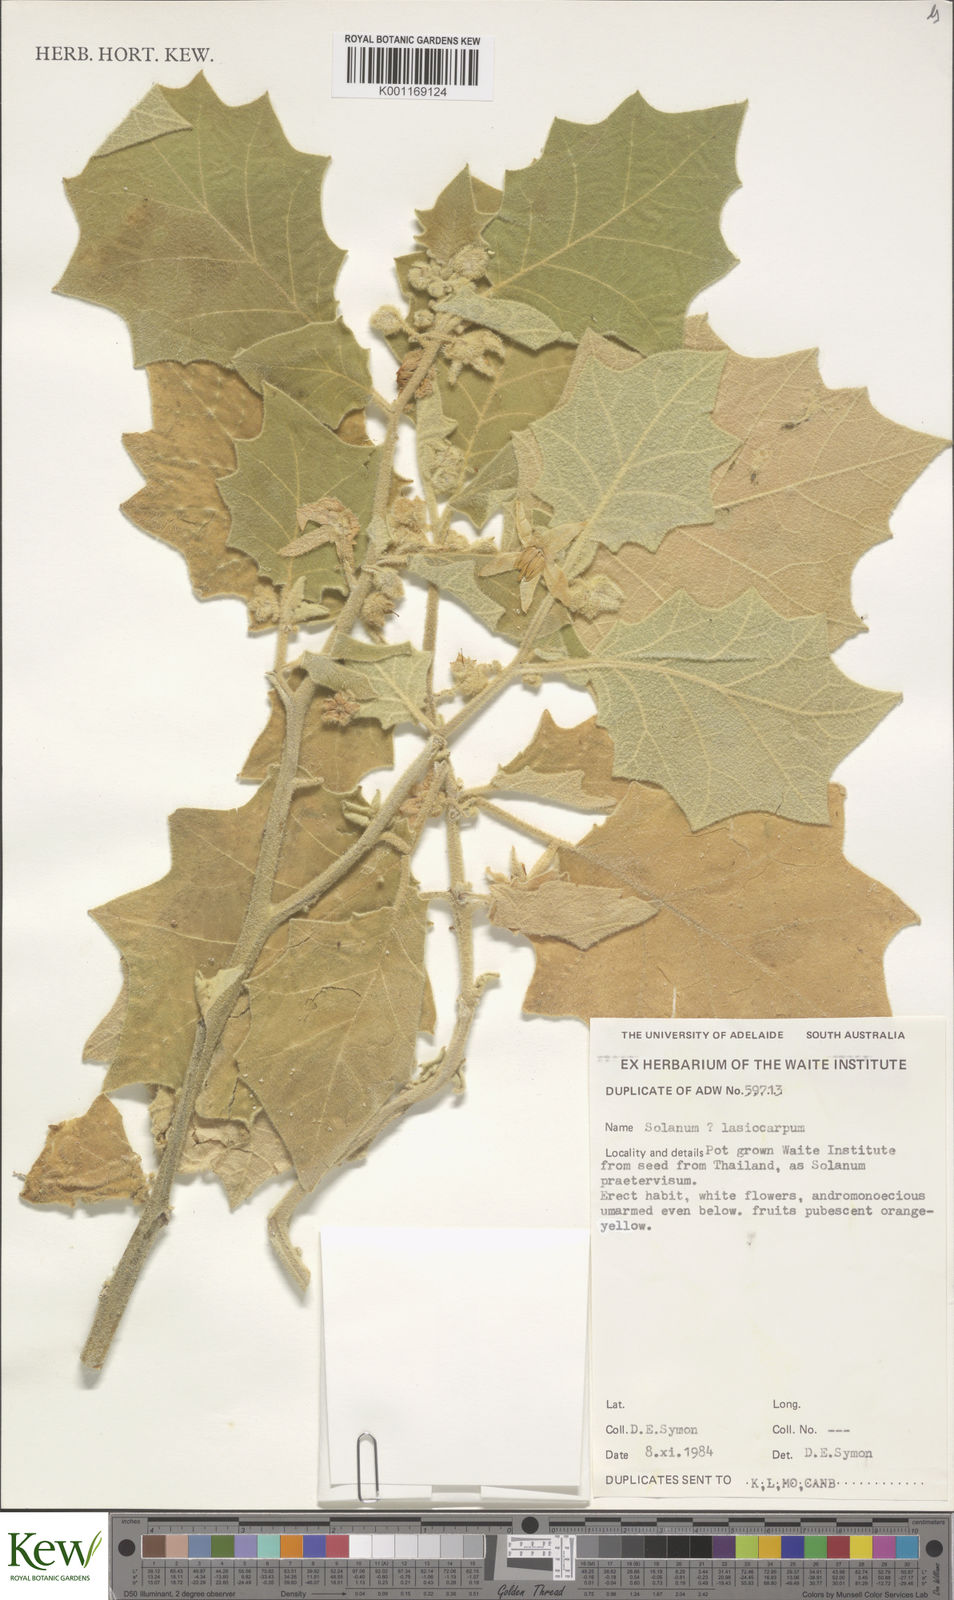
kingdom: Plantae
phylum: Tracheophyta
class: Magnoliopsida
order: Solanales
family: Solanaceae
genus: Solanum
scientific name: Solanum lasiocarpum
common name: Indian nightshade
